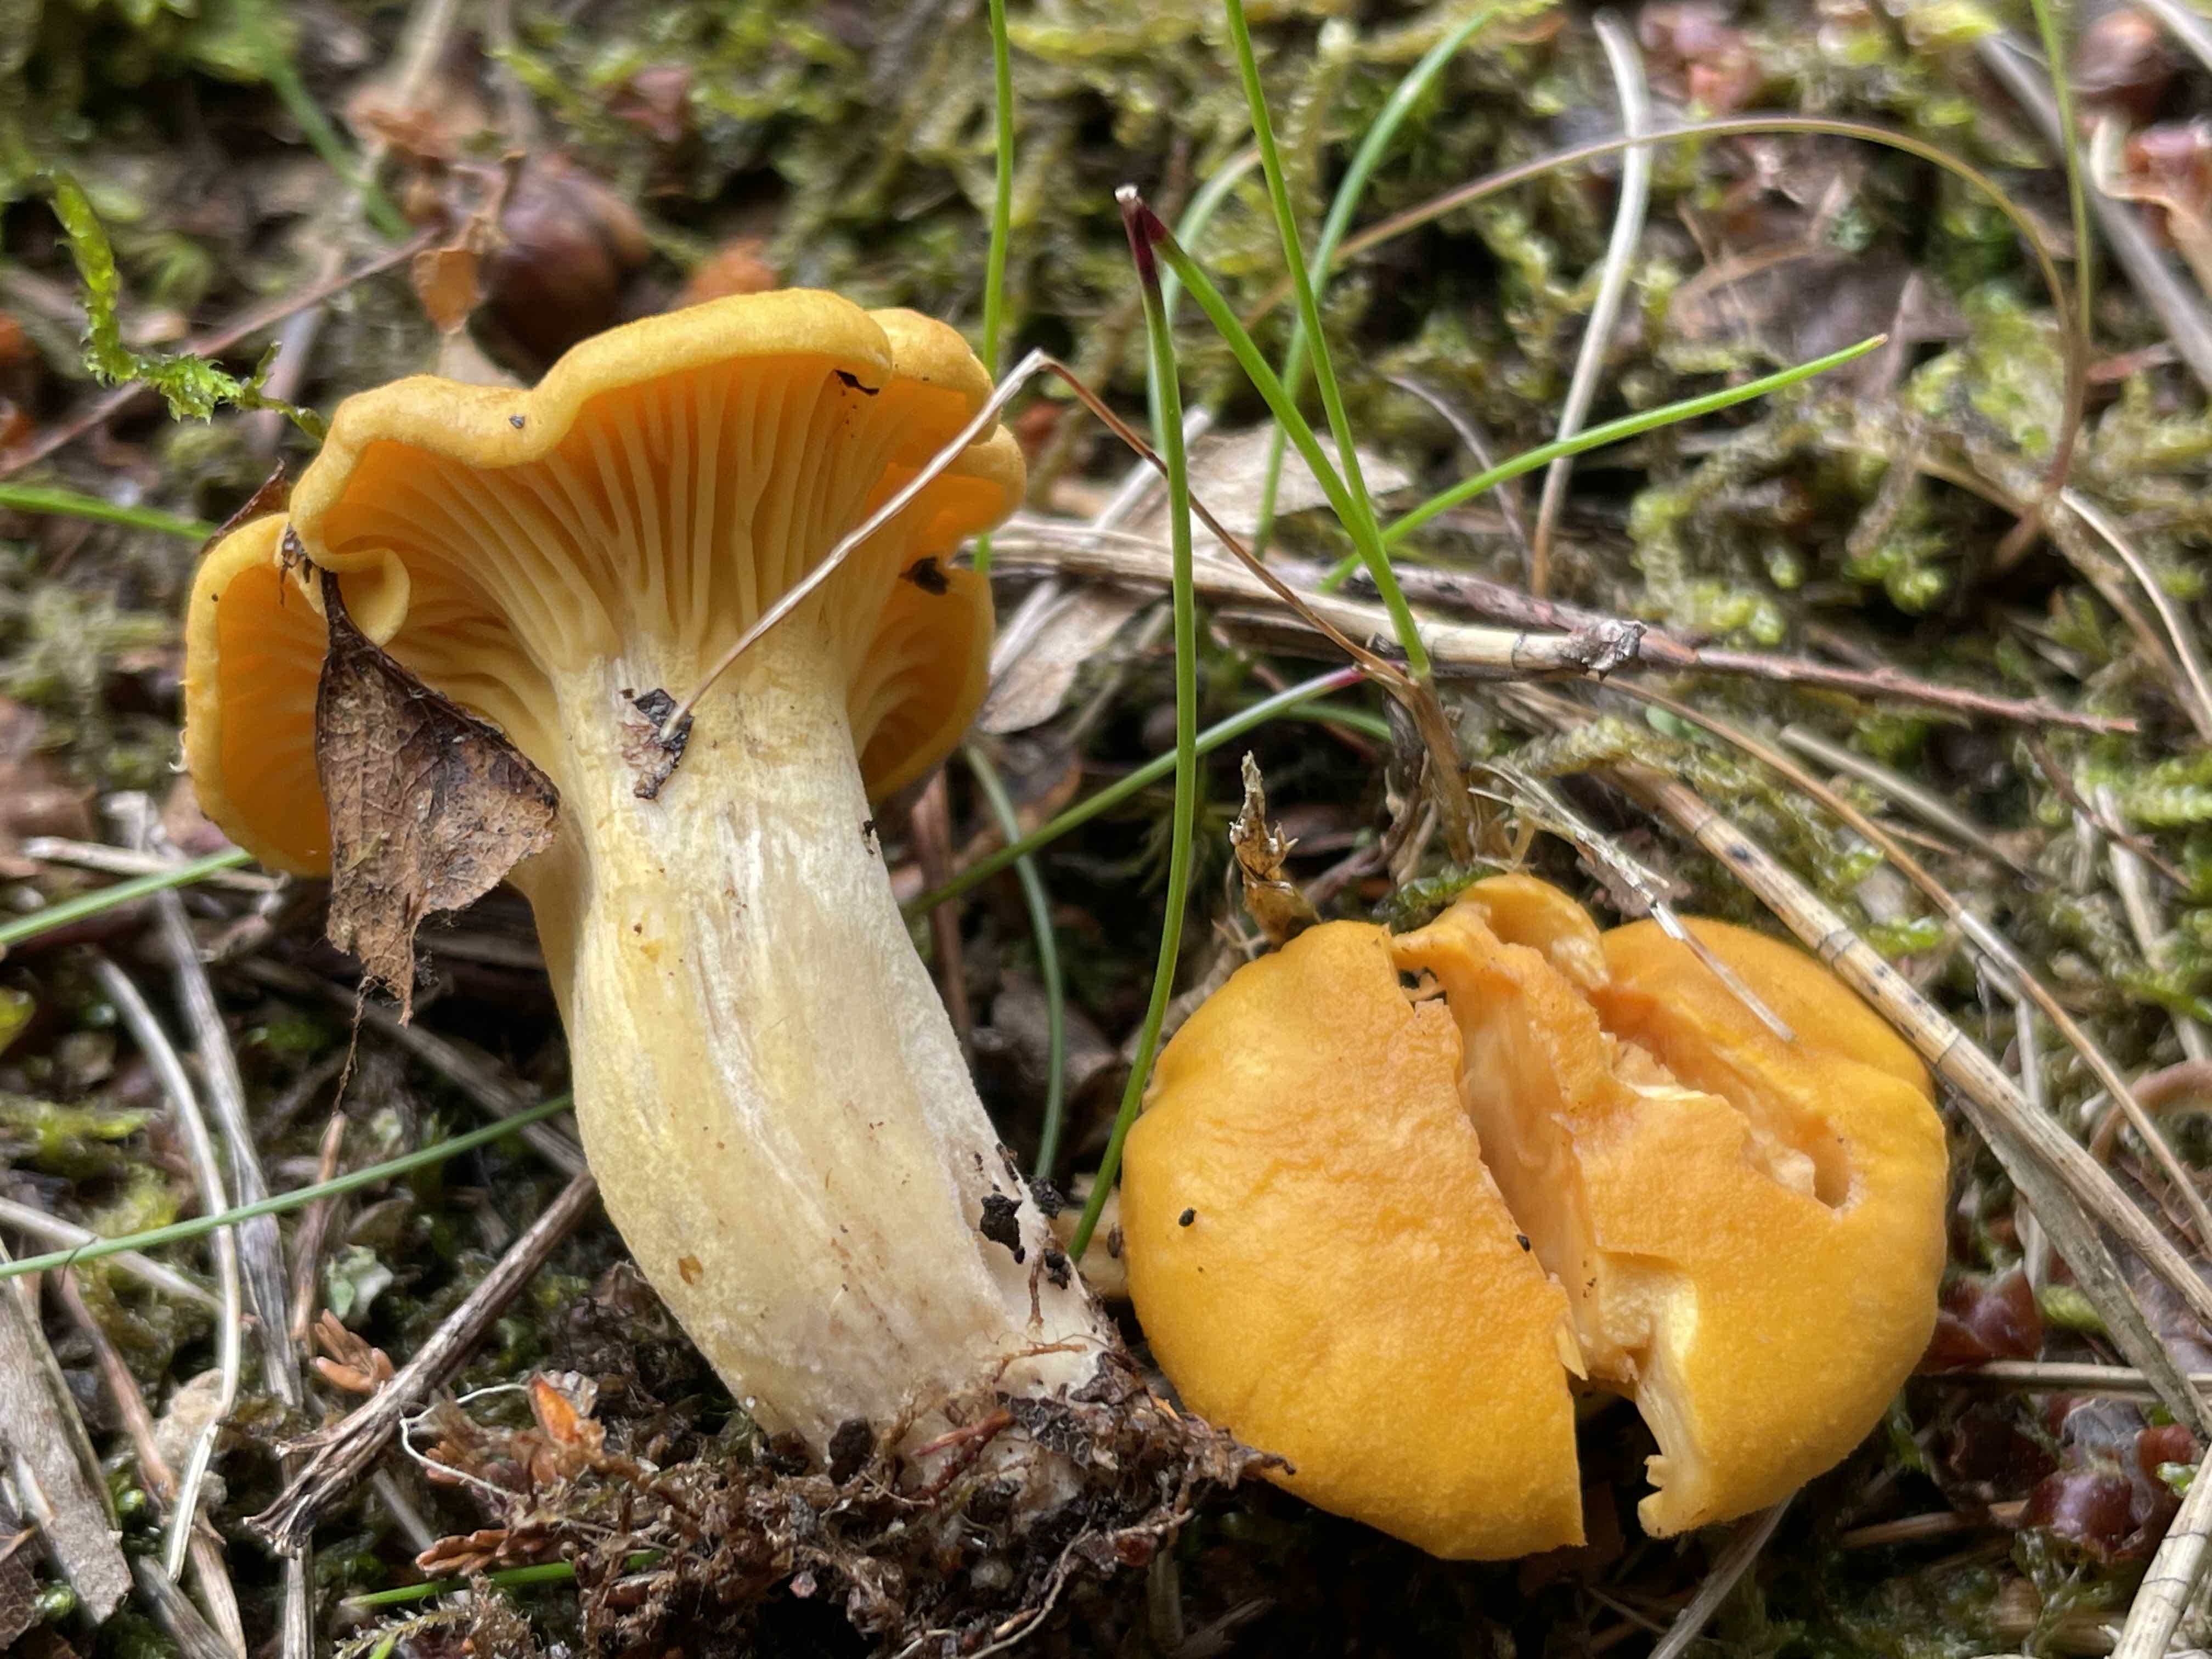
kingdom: Fungi
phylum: Basidiomycota
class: Agaricomycetes
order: Cantharellales
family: Hydnaceae
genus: Cantharellus
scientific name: Cantharellus cibarius
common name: almindelig kantarel
